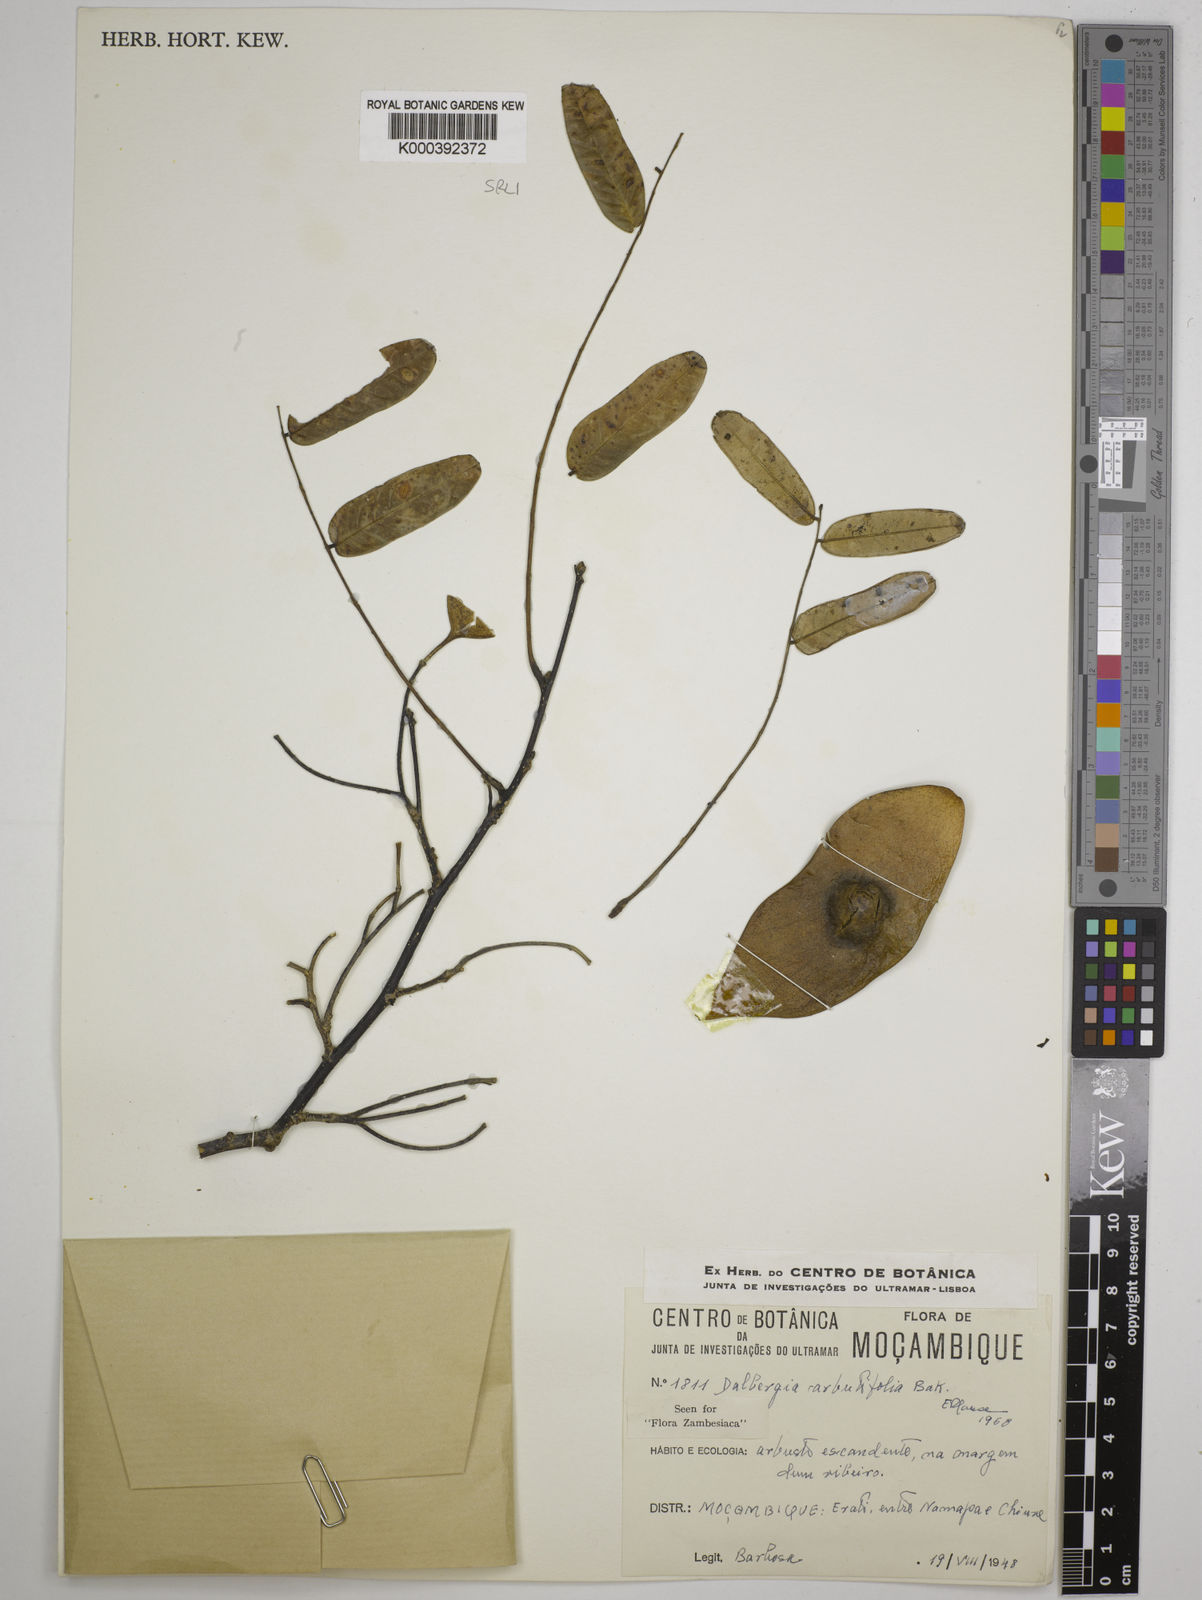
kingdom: Plantae
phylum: Tracheophyta
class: Magnoliopsida
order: Fabales
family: Fabaceae
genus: Dalbergia
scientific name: Dalbergia arbutifolia
